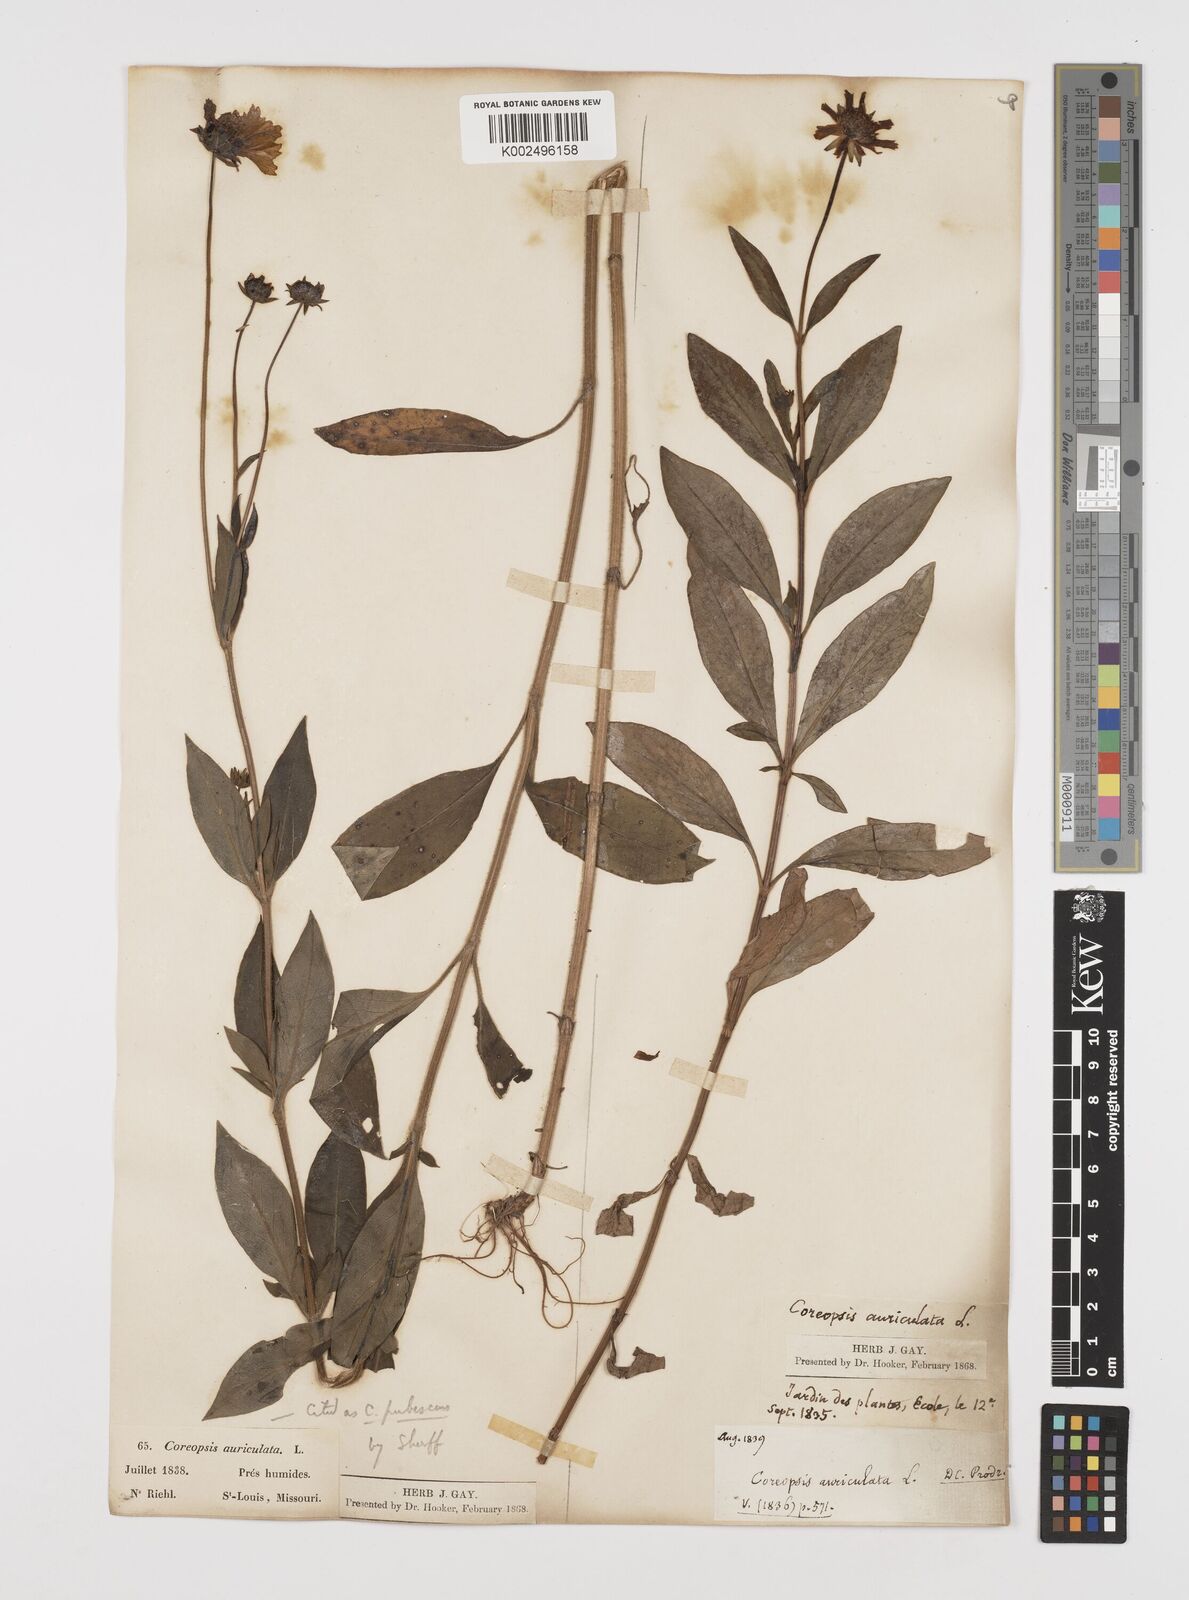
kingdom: Plantae
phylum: Tracheophyta
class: Magnoliopsida
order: Asterales
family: Asteraceae
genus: Coreopsis
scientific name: Coreopsis pubescens
